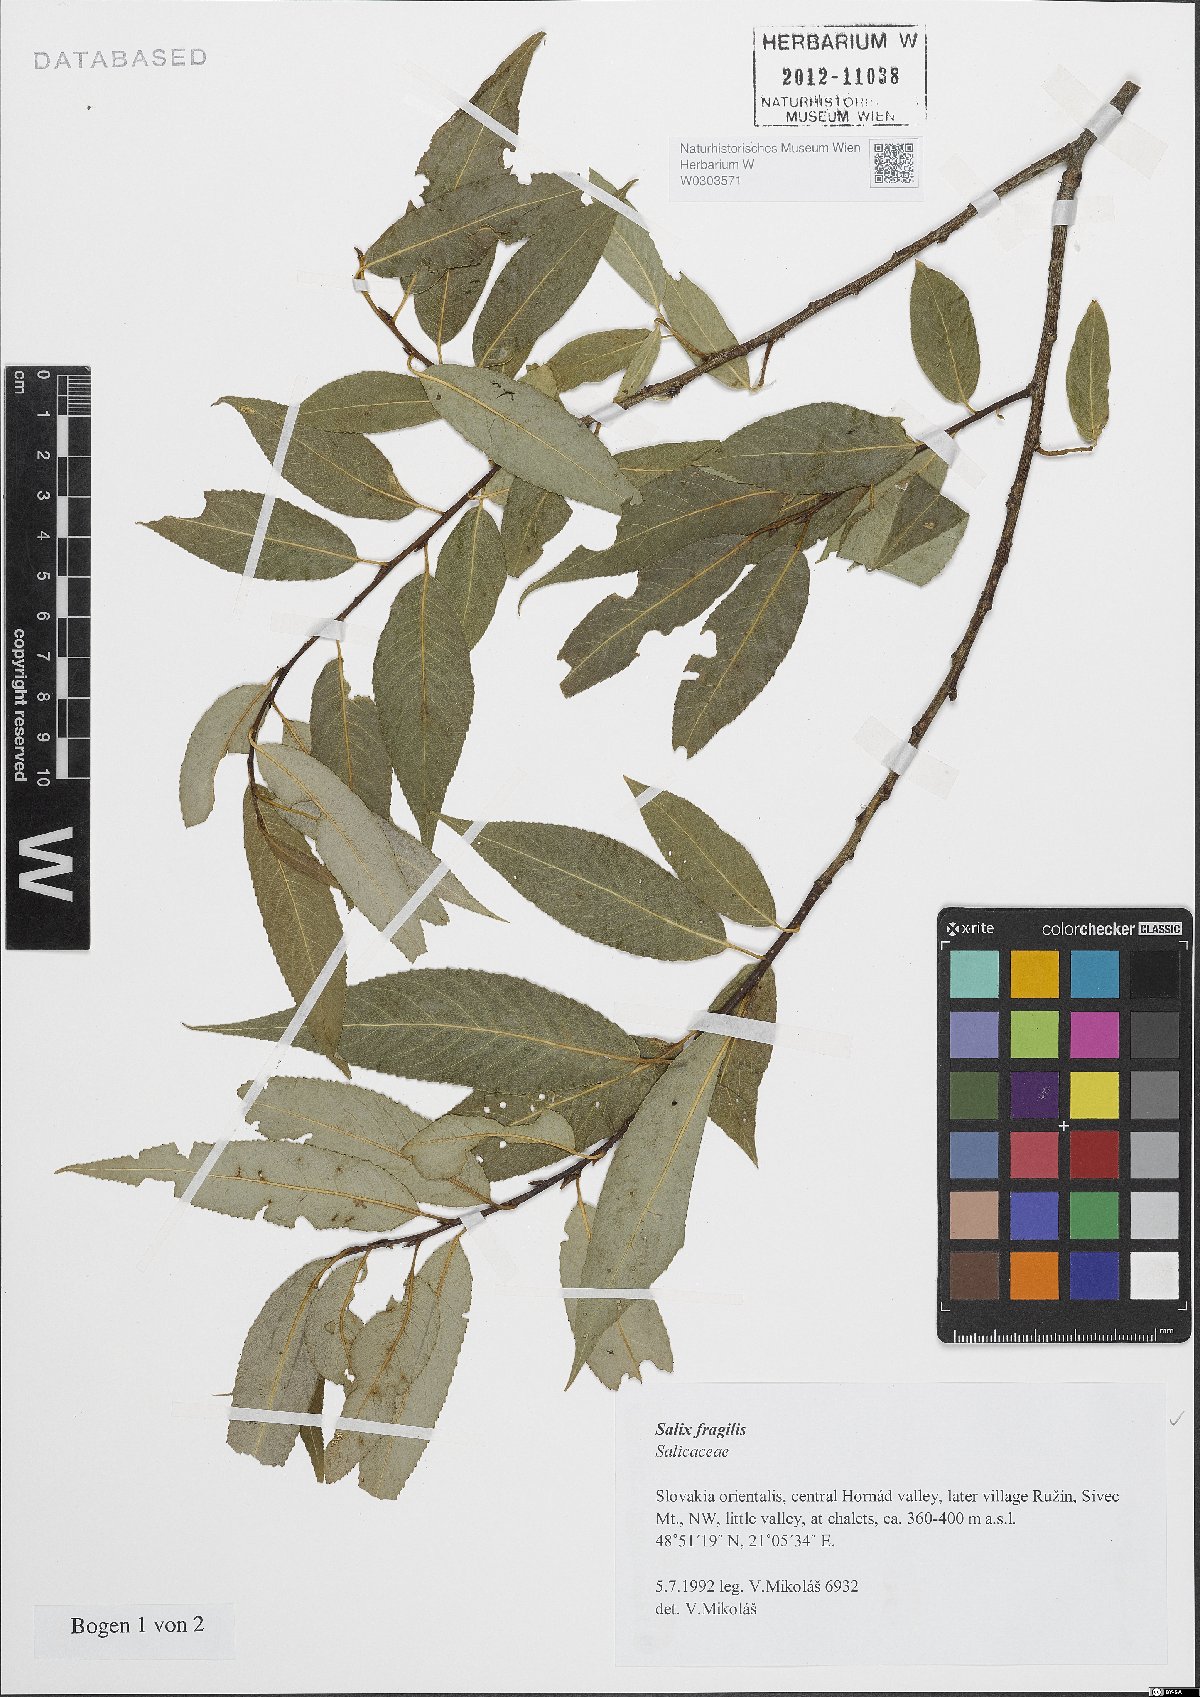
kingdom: Plantae
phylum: Tracheophyta
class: Magnoliopsida
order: Malpighiales
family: Salicaceae
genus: Salix
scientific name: Salix fragilis
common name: Crack willow
